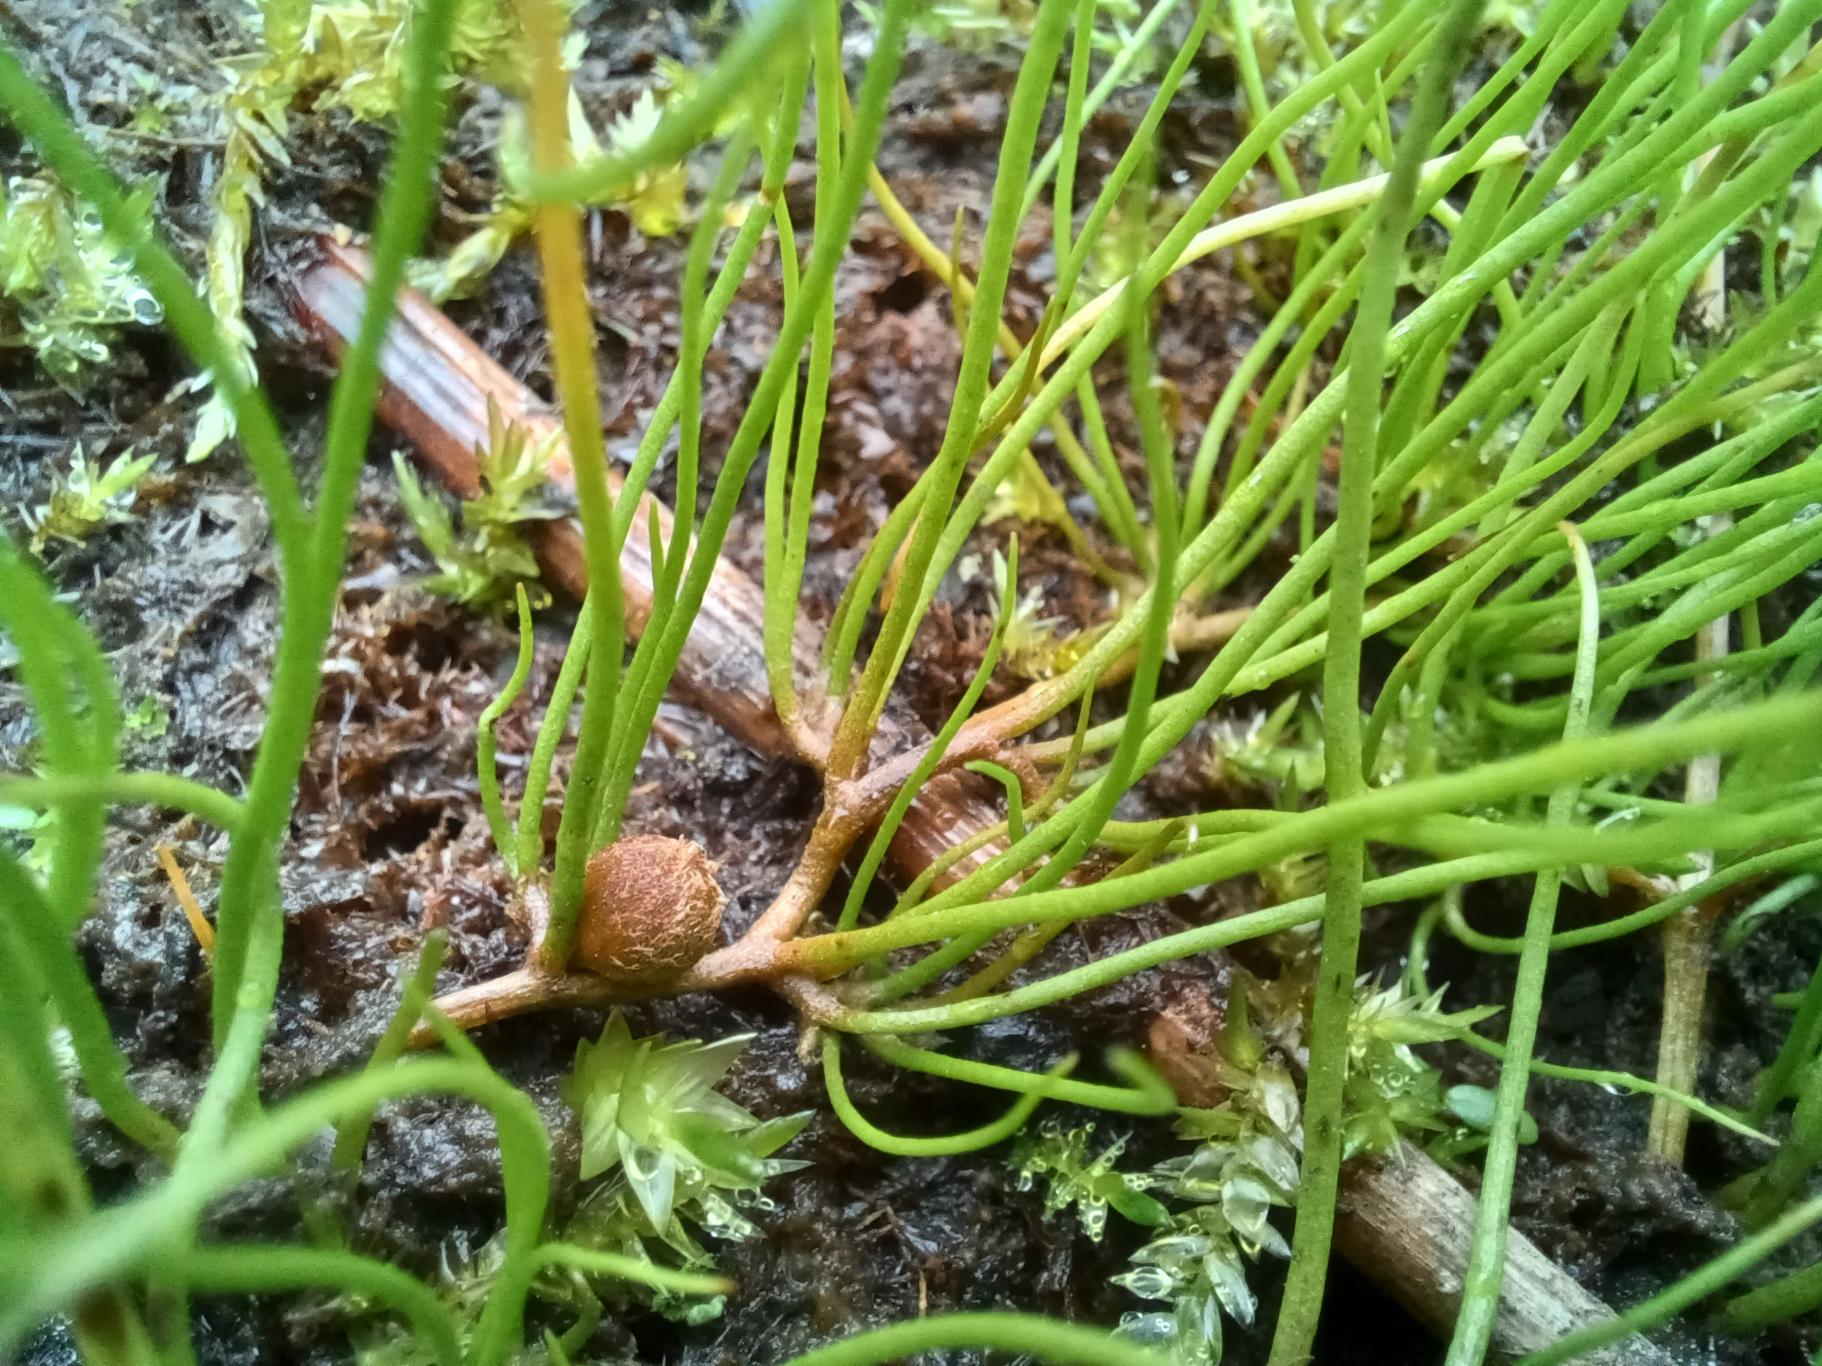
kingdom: Plantae
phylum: Tracheophyta
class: Polypodiopsida
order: Salviniales
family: Marsileaceae
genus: Pilularia
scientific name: Pilularia globulifera
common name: Pilledrager
